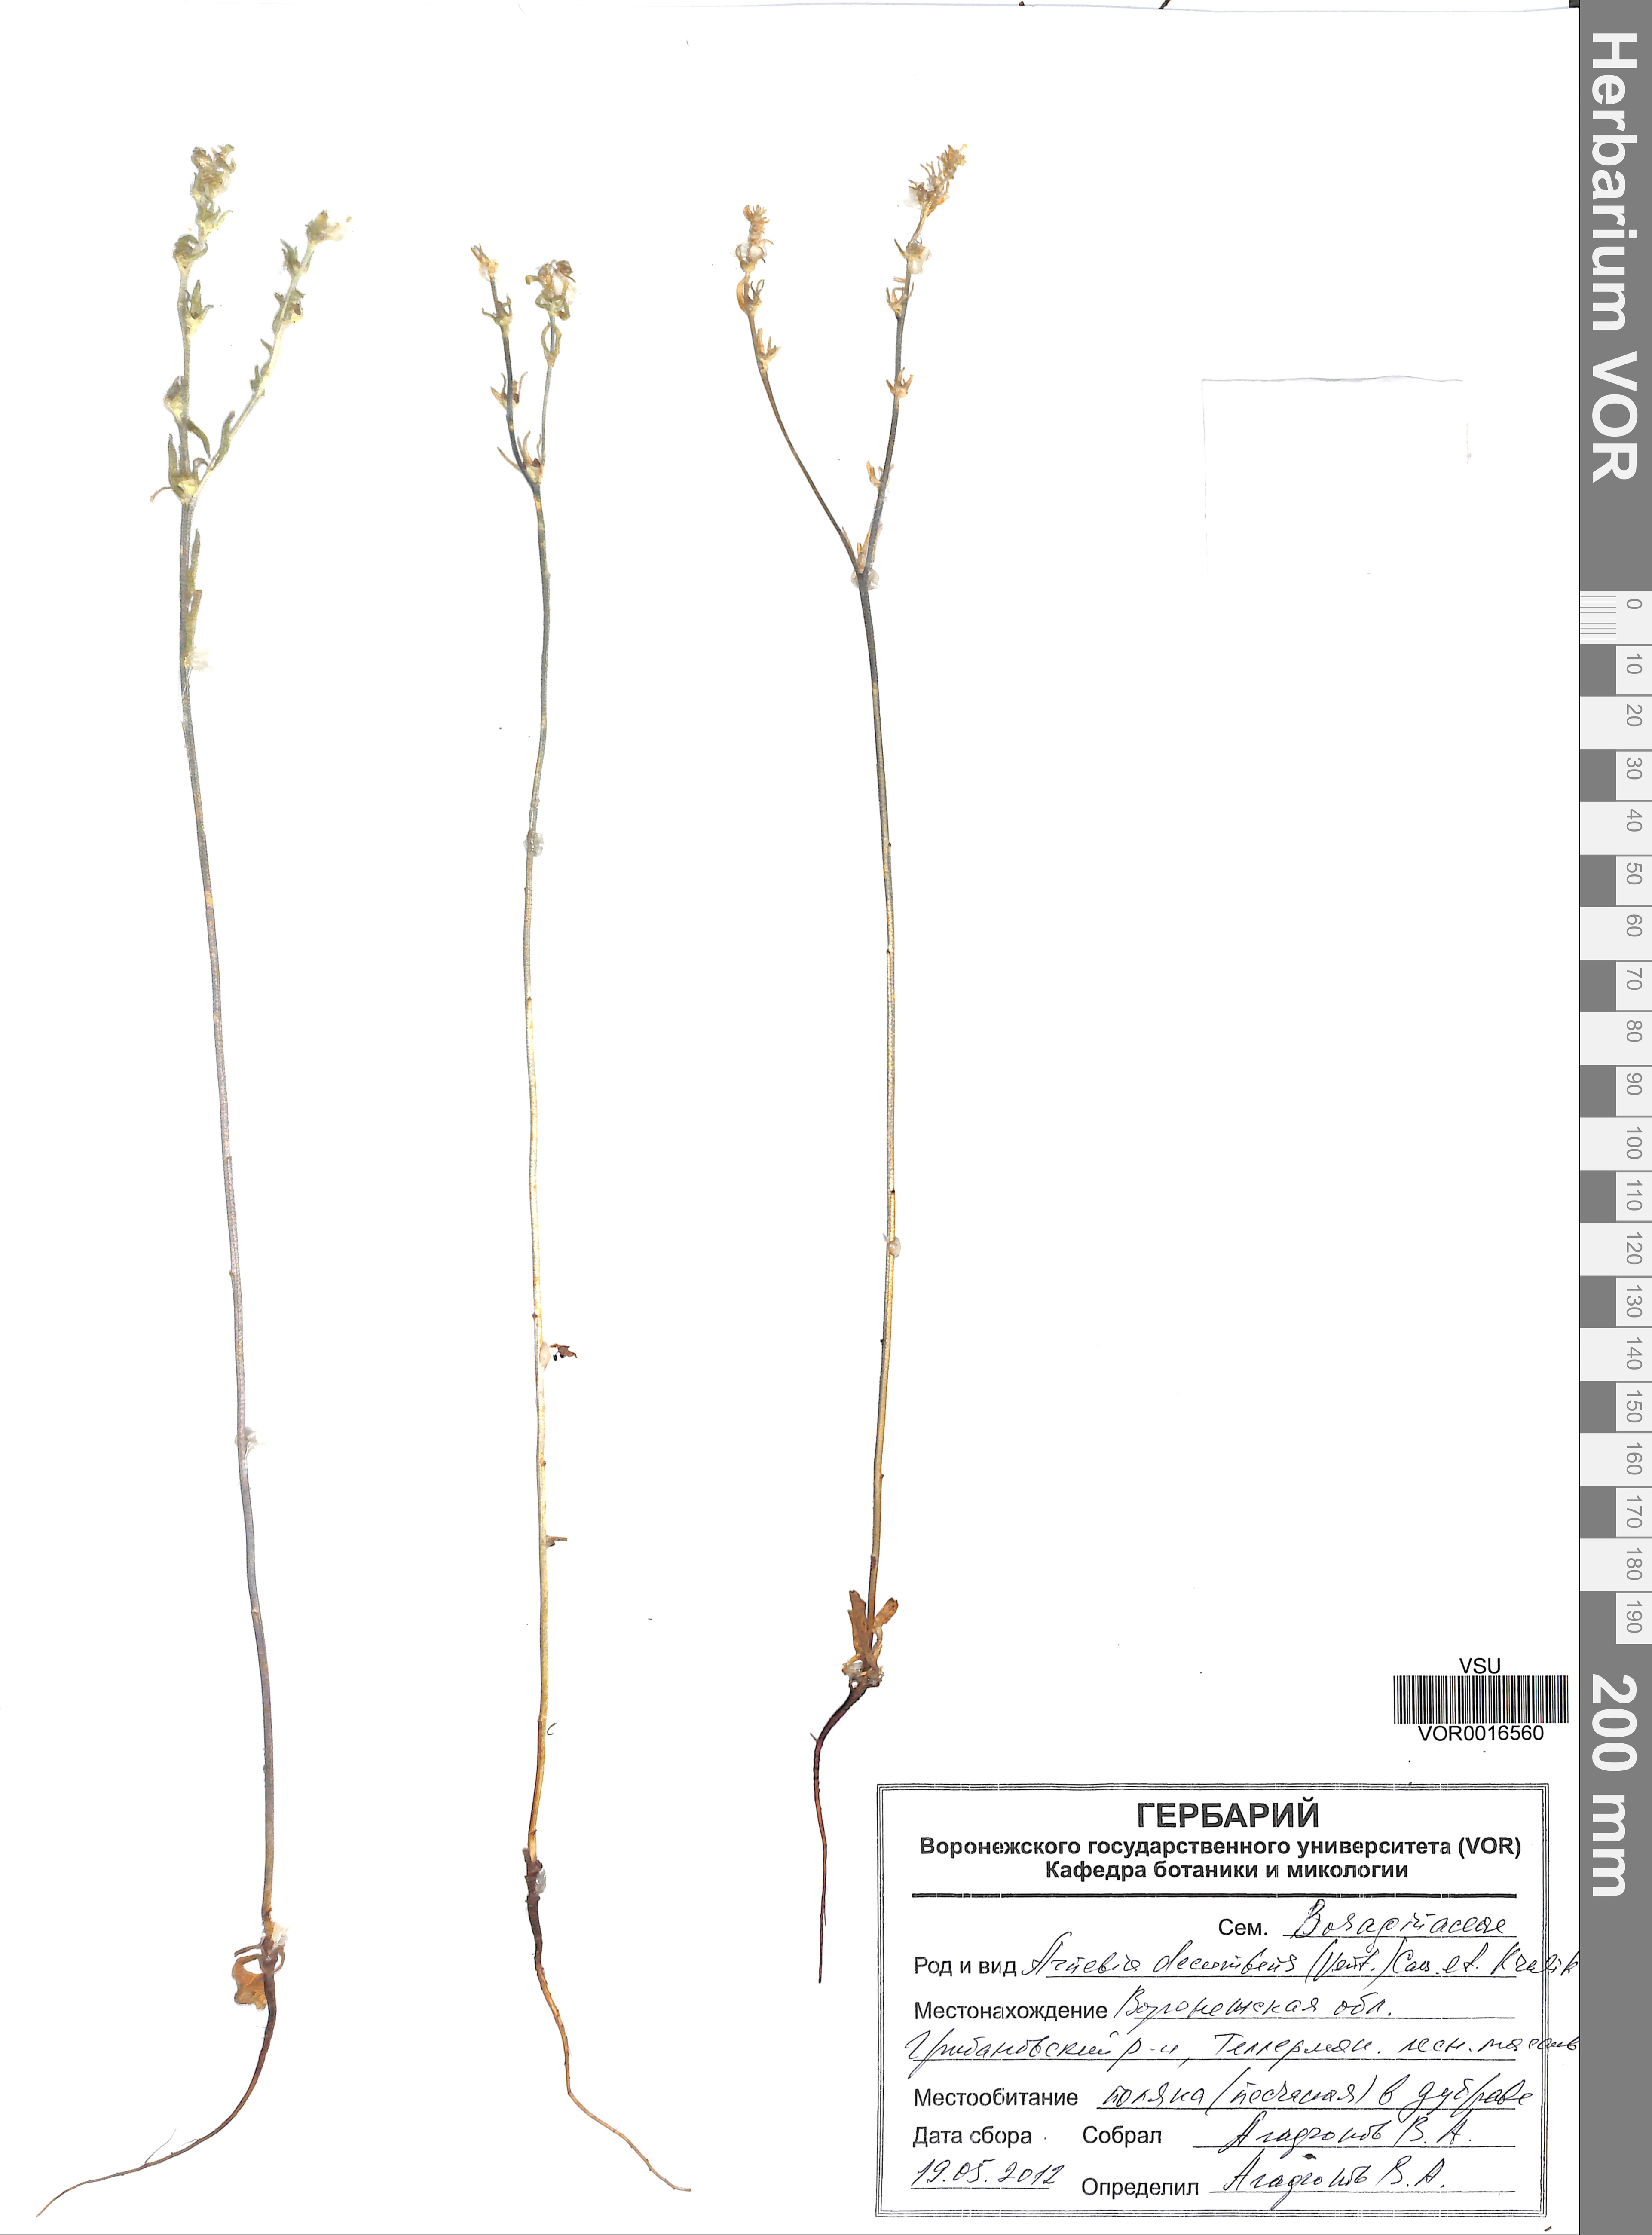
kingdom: Plantae
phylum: Tracheophyta
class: Magnoliopsida
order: Boraginales
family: Boraginaceae
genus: Arnebia
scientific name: Arnebia decumbens
